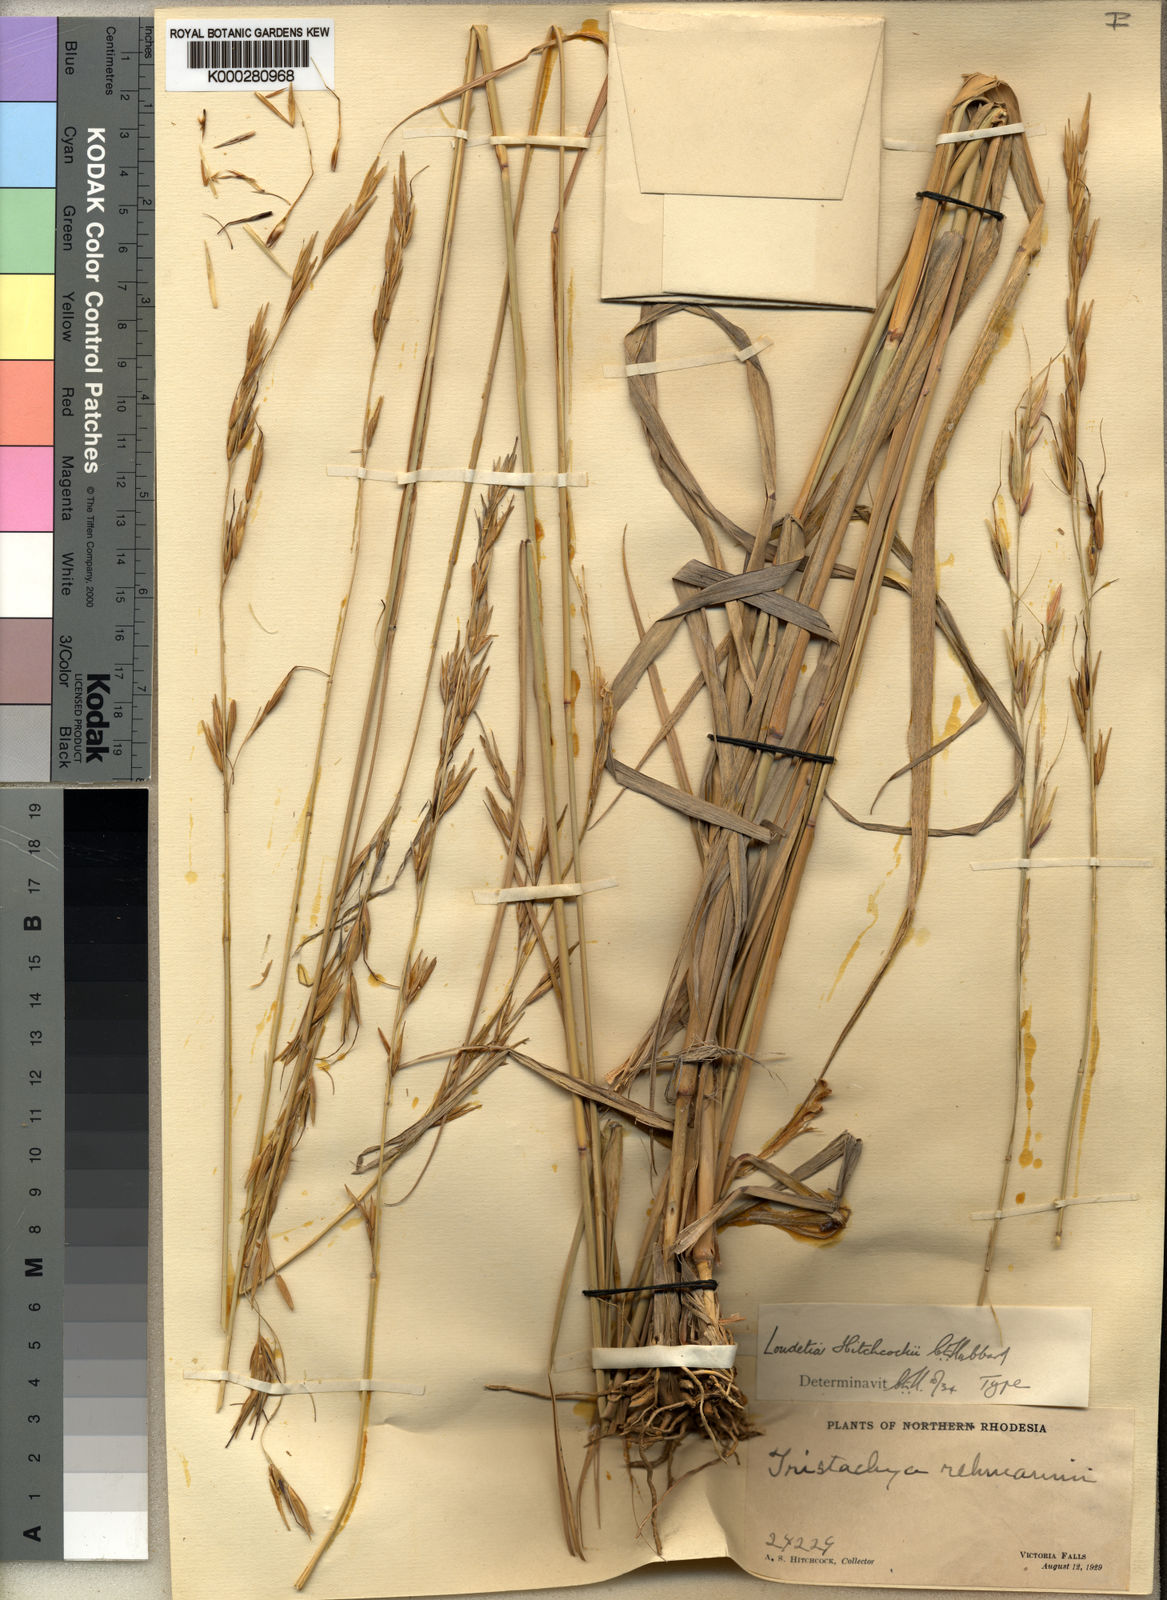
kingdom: Plantae
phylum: Tracheophyta
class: Liliopsida
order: Poales
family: Poaceae
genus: Tristachya
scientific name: Tristachya lualabaensis
